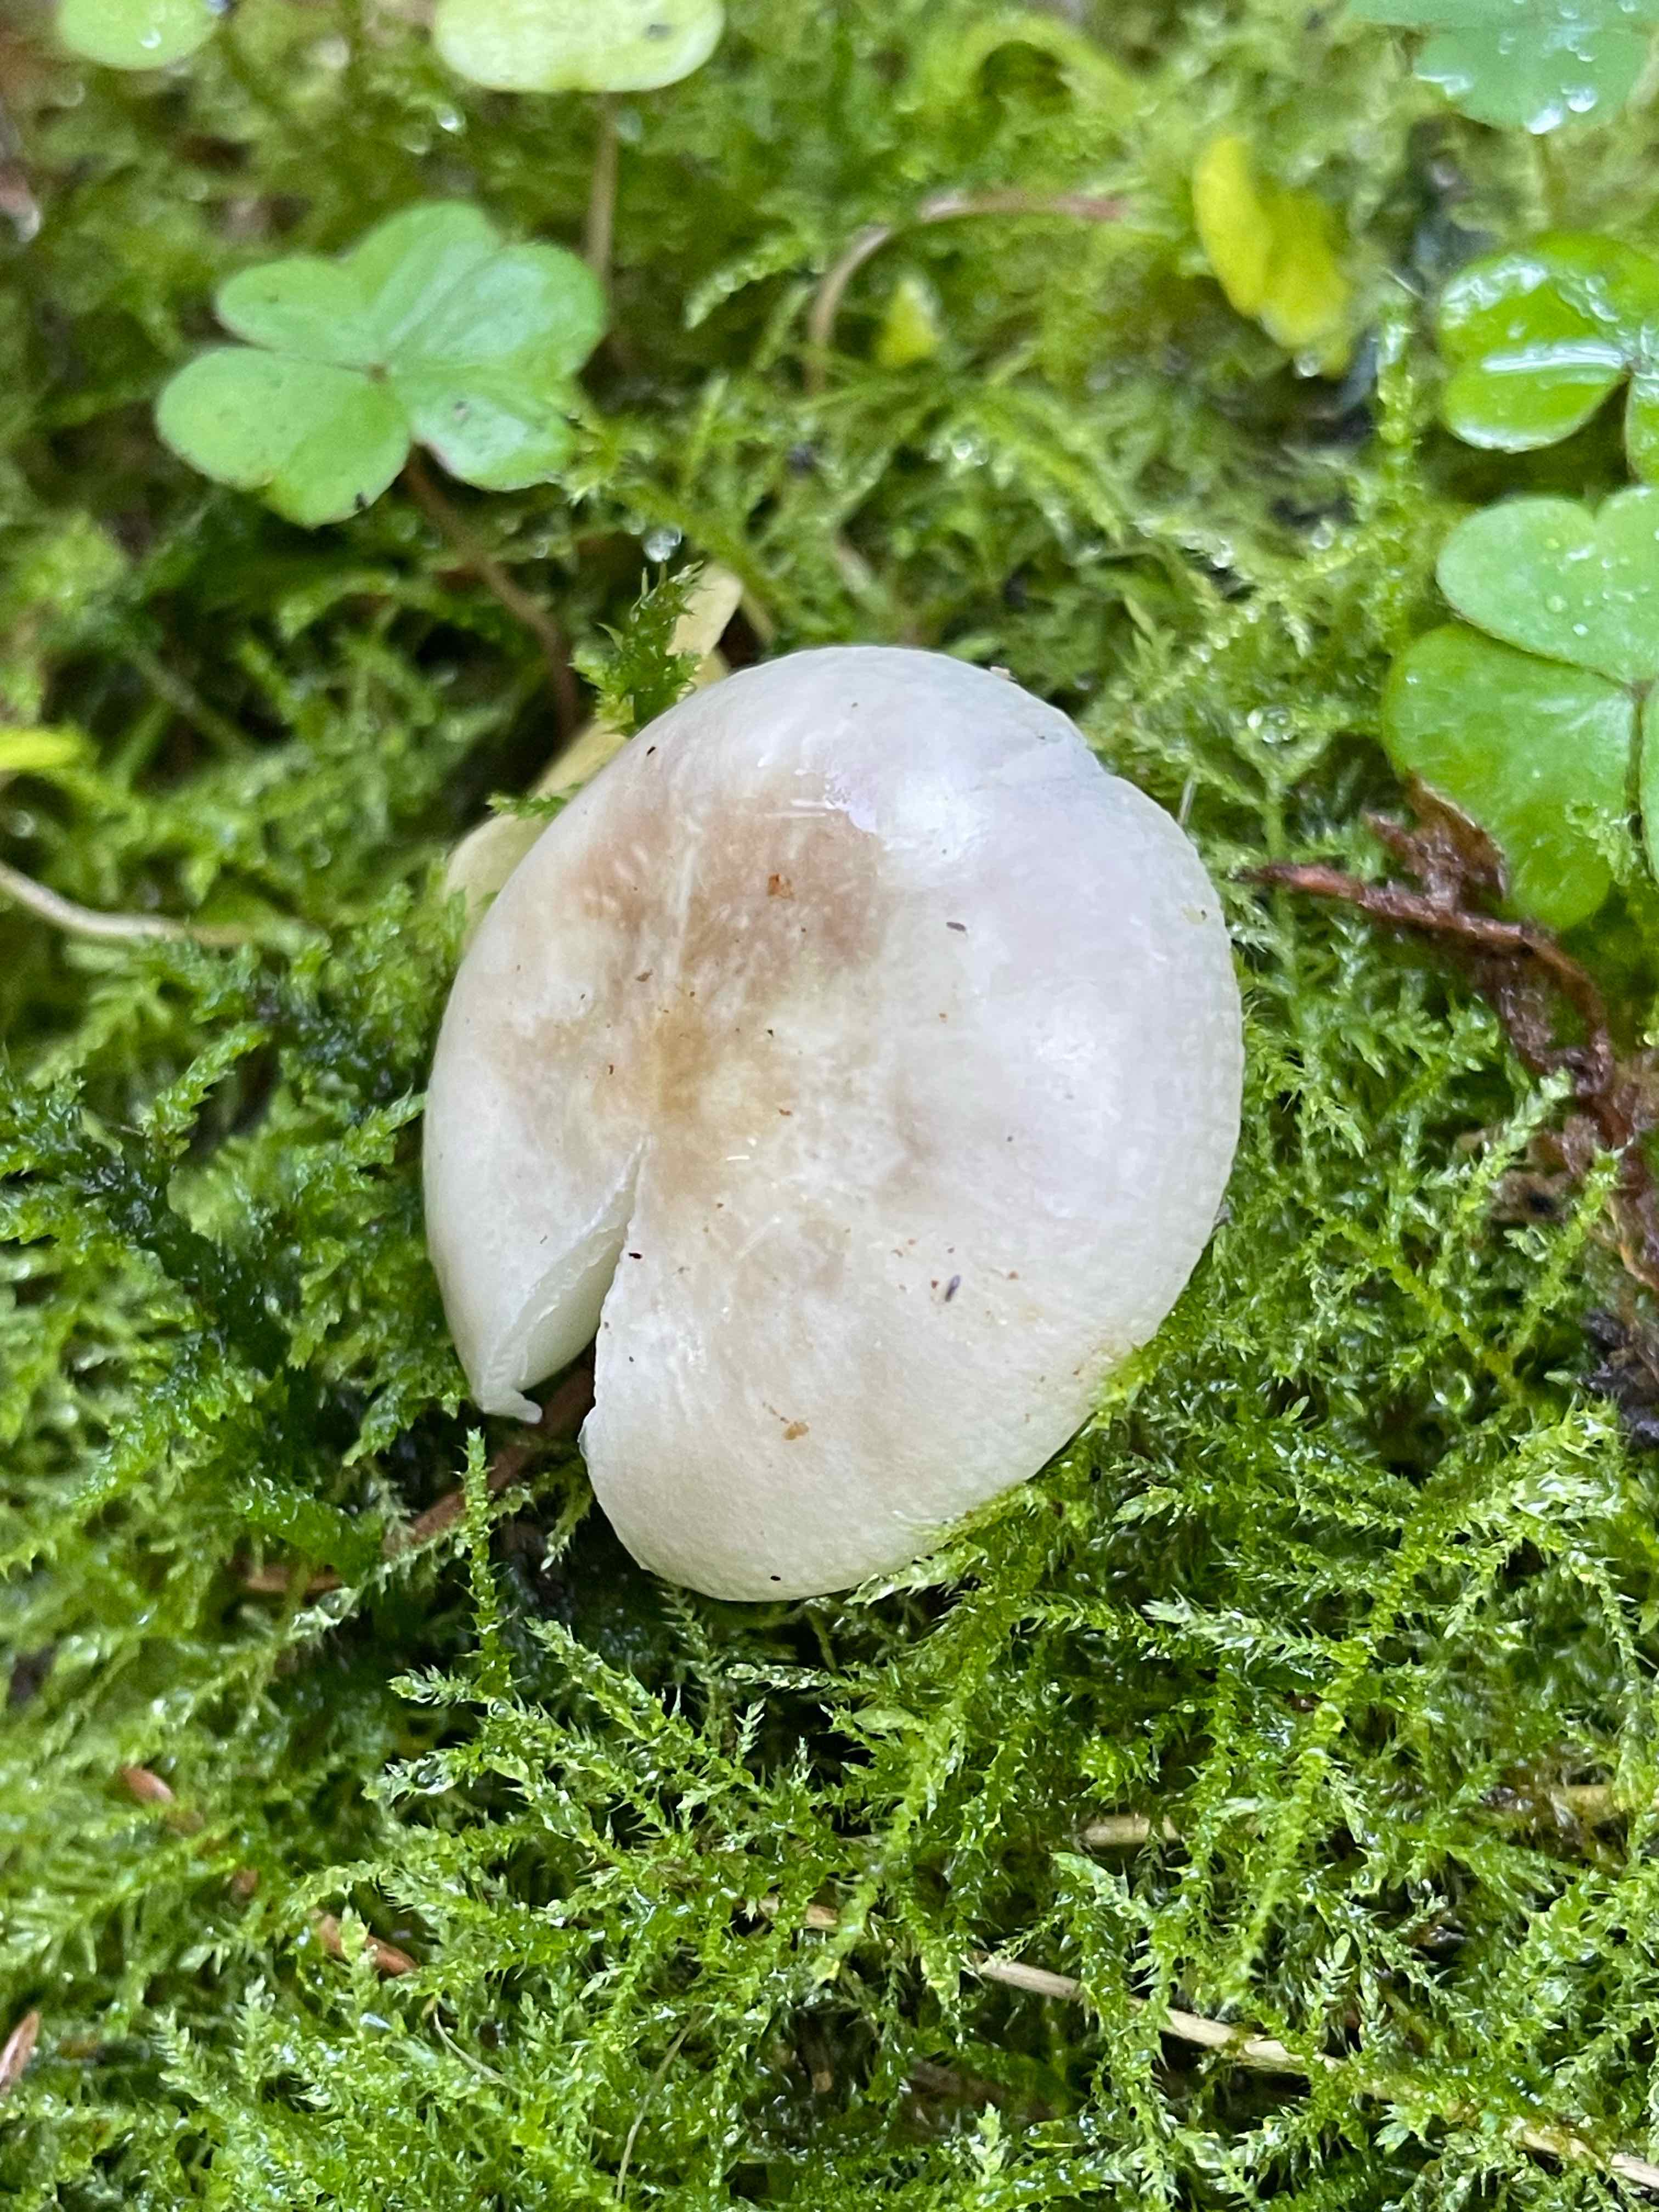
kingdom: Fungi
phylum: Basidiomycota
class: Agaricomycetes
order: Russulales
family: Russulaceae
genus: Russula
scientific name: Russula
